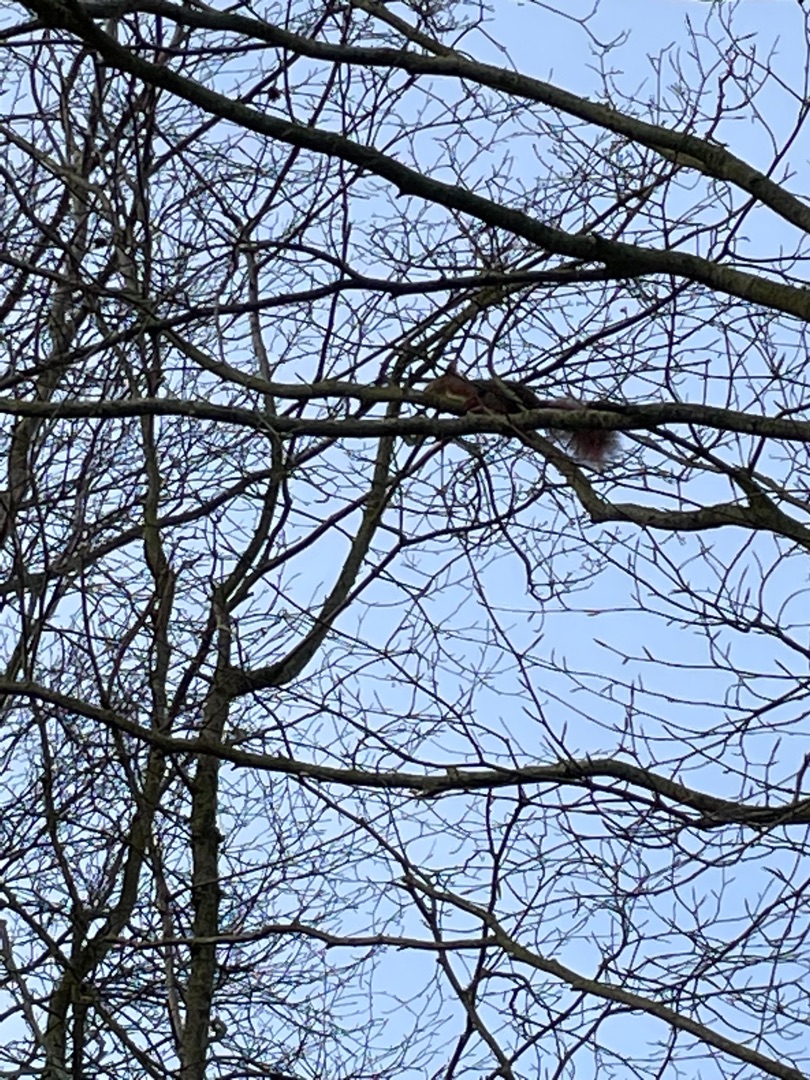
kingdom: Animalia
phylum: Chordata
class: Mammalia
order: Rodentia
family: Sciuridae
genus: Sciurus
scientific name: Sciurus vulgaris
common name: Egern
